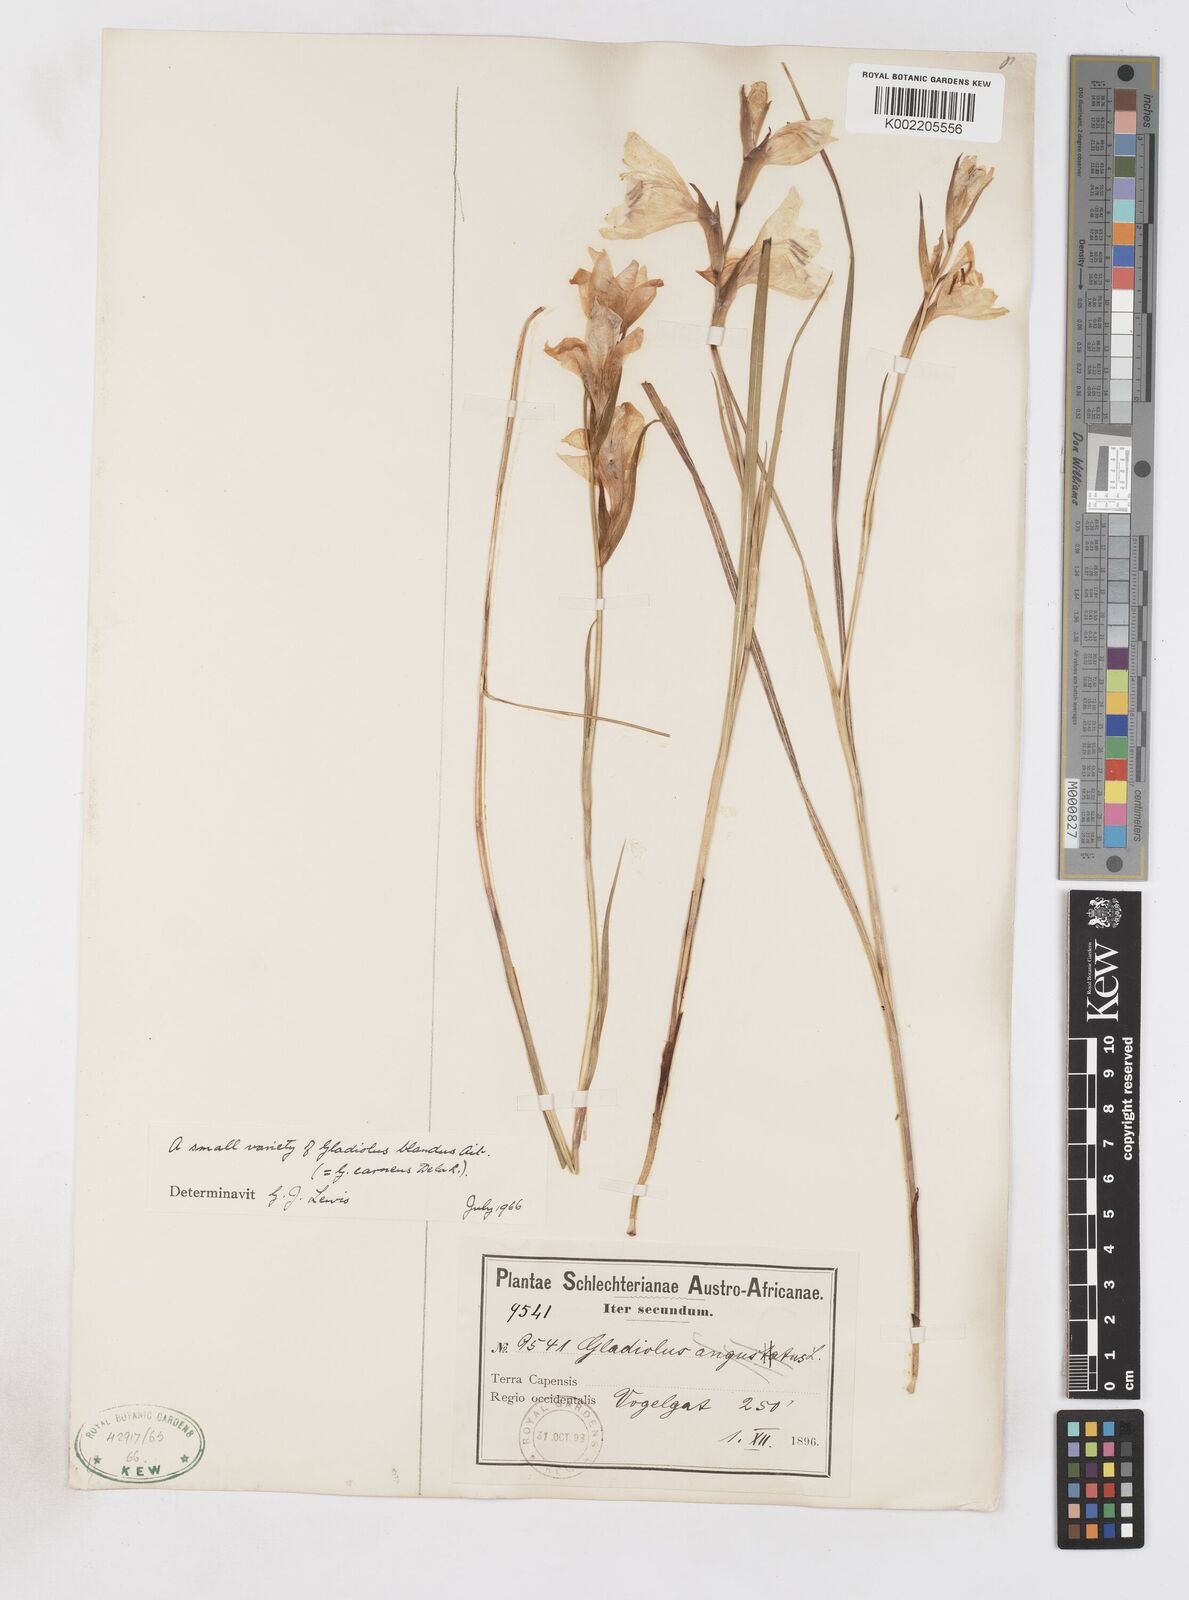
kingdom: Plantae
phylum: Tracheophyta
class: Liliopsida
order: Asparagales
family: Iridaceae
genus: Gladiolus
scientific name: Gladiolus carneus
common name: Painted-lady
